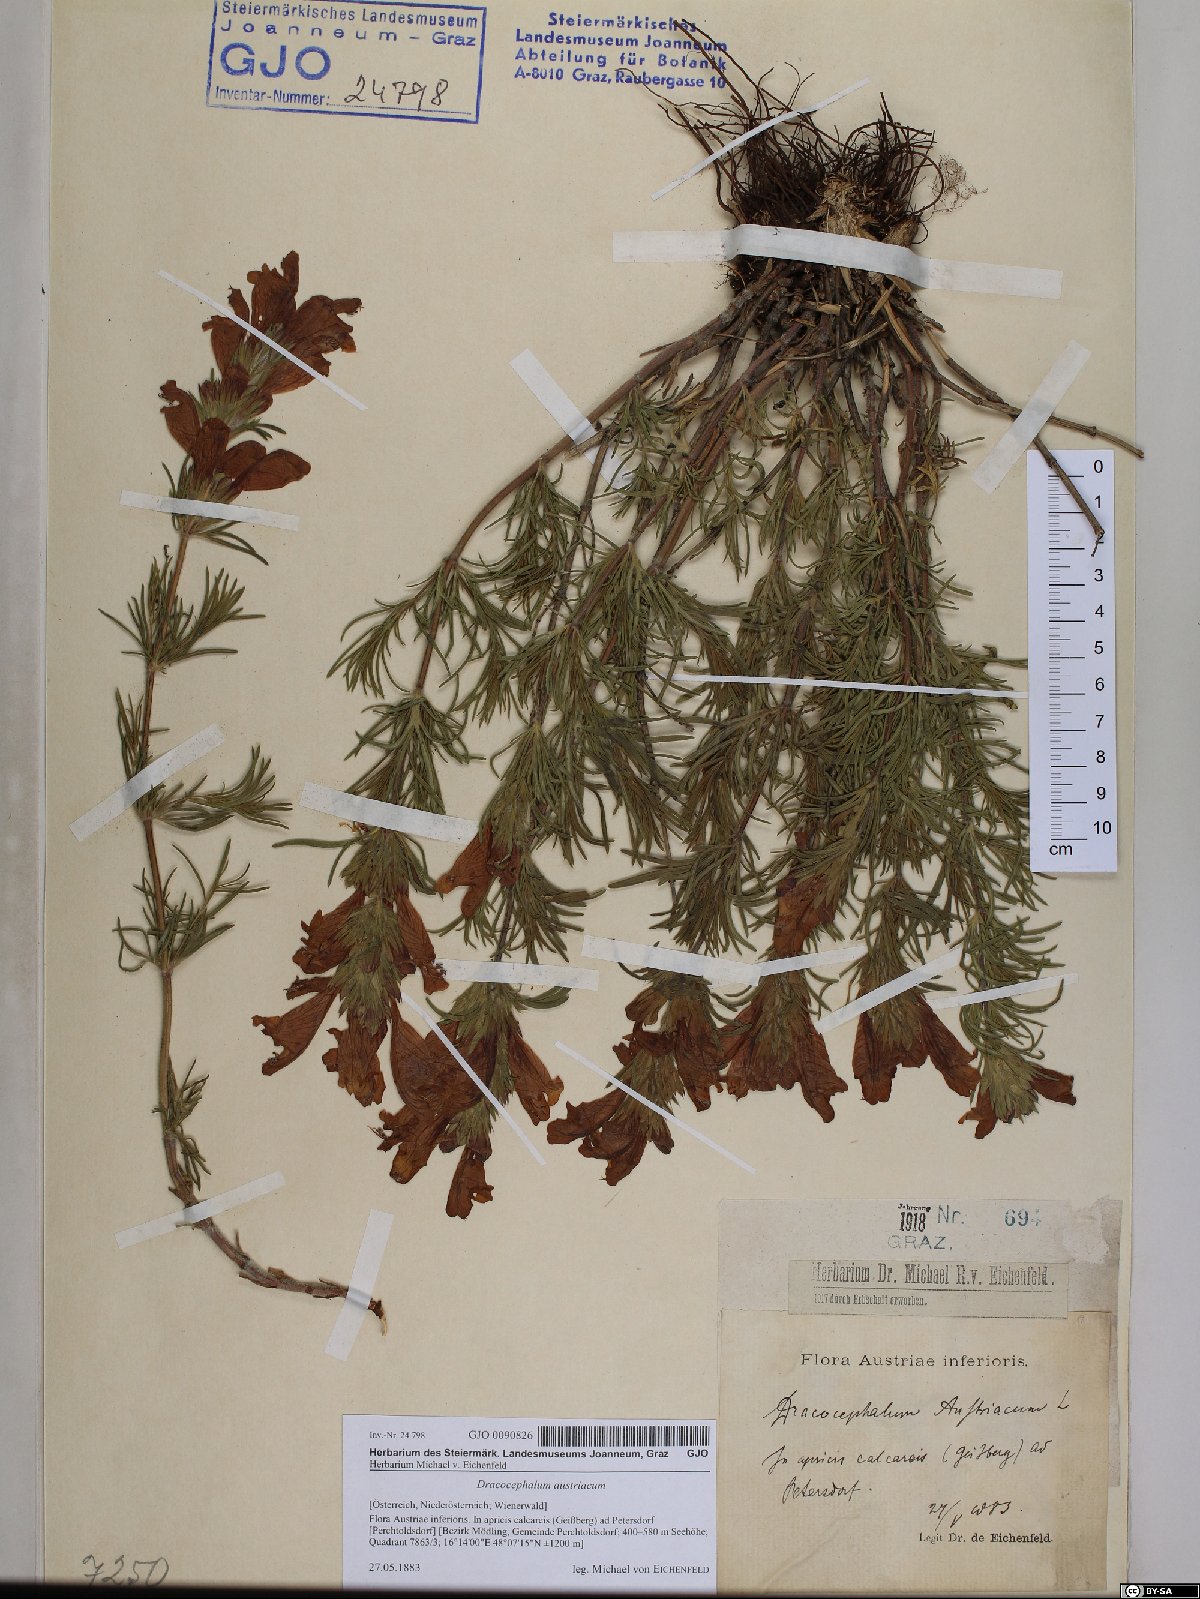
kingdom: Plantae
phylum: Tracheophyta
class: Magnoliopsida
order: Lamiales
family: Lamiaceae
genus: Dracocephalum
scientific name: Dracocephalum austriacum
